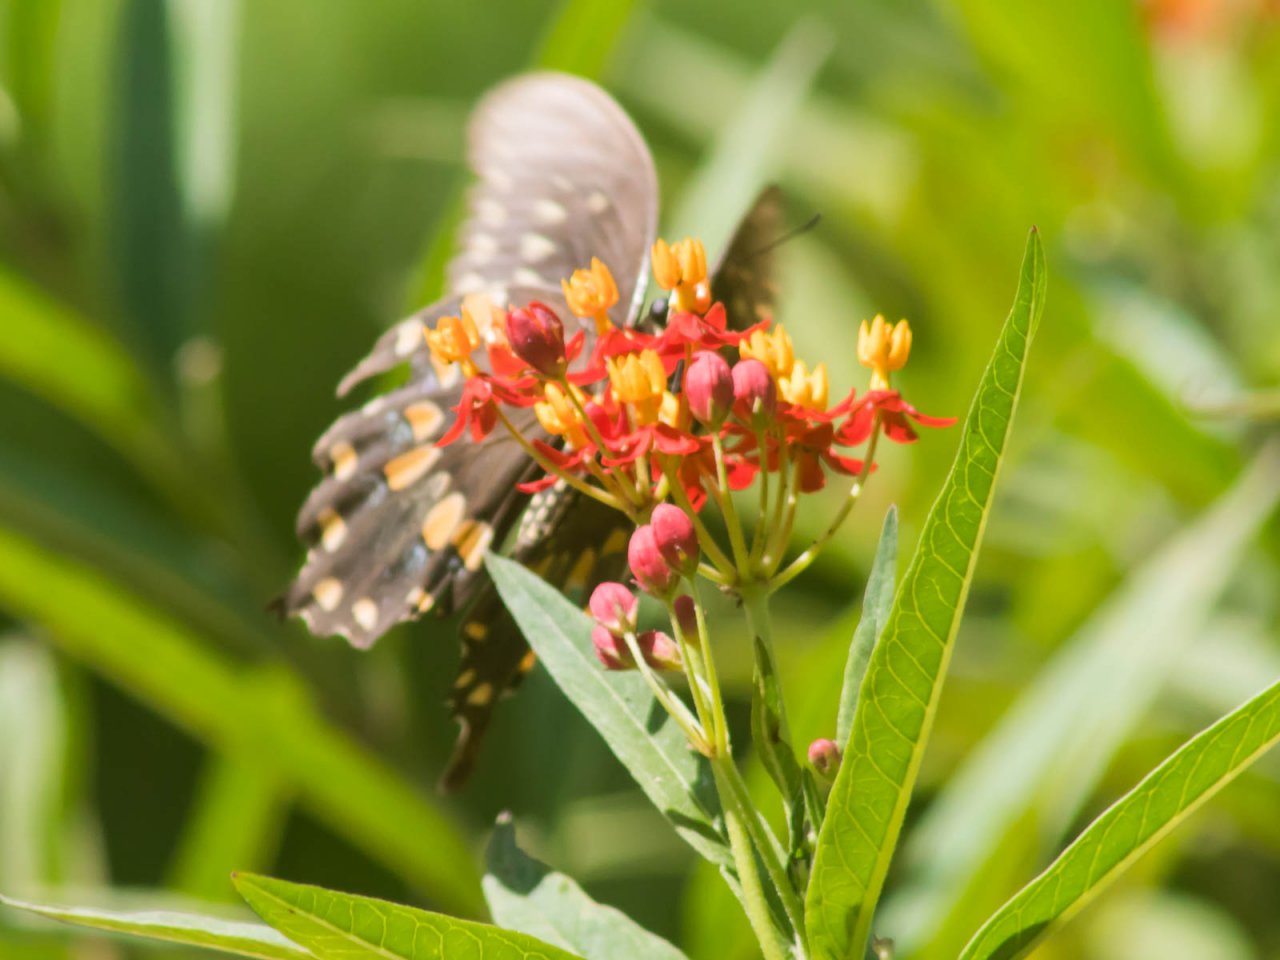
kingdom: Animalia
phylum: Arthropoda
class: Insecta
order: Lepidoptera
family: Papilionidae
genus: Pterourus
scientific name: Pterourus troilus
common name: Spicebush Swallowtail
